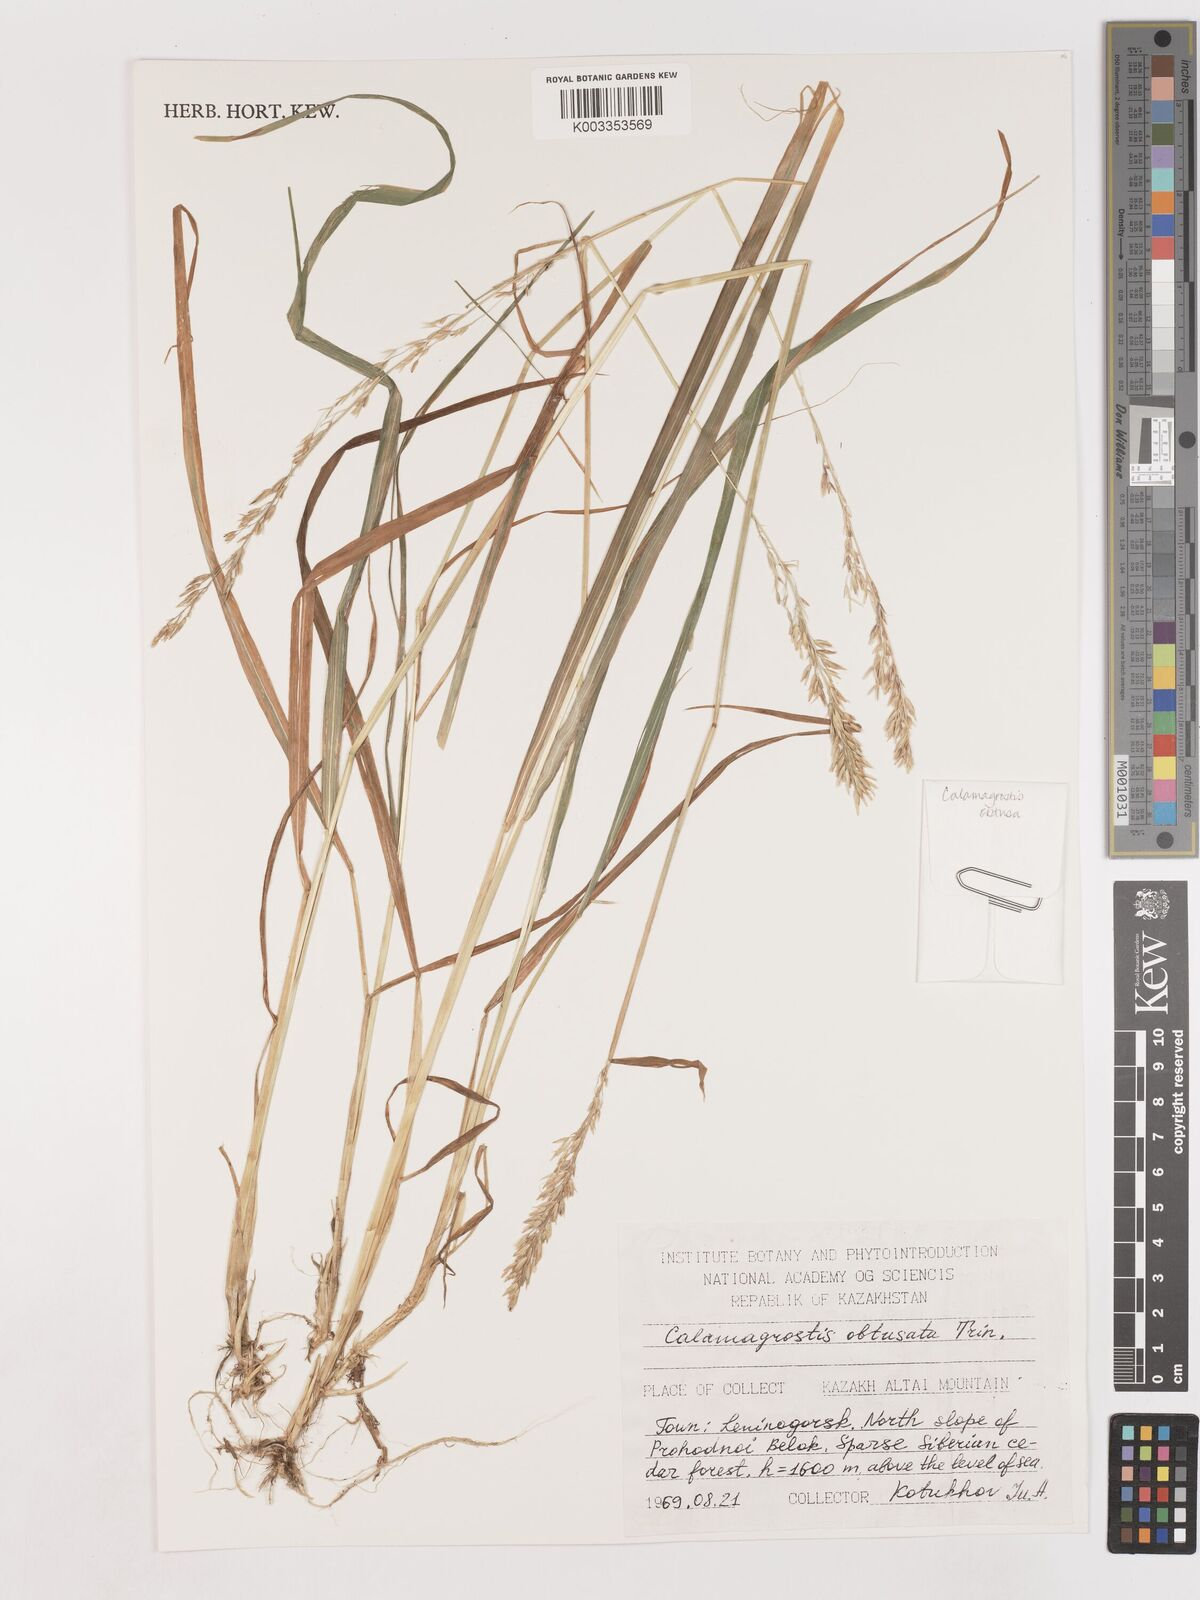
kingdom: Plantae
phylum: Tracheophyta
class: Liliopsida
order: Poales
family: Poaceae
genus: Cinnagrostis
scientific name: Cinnagrostis spicigera
